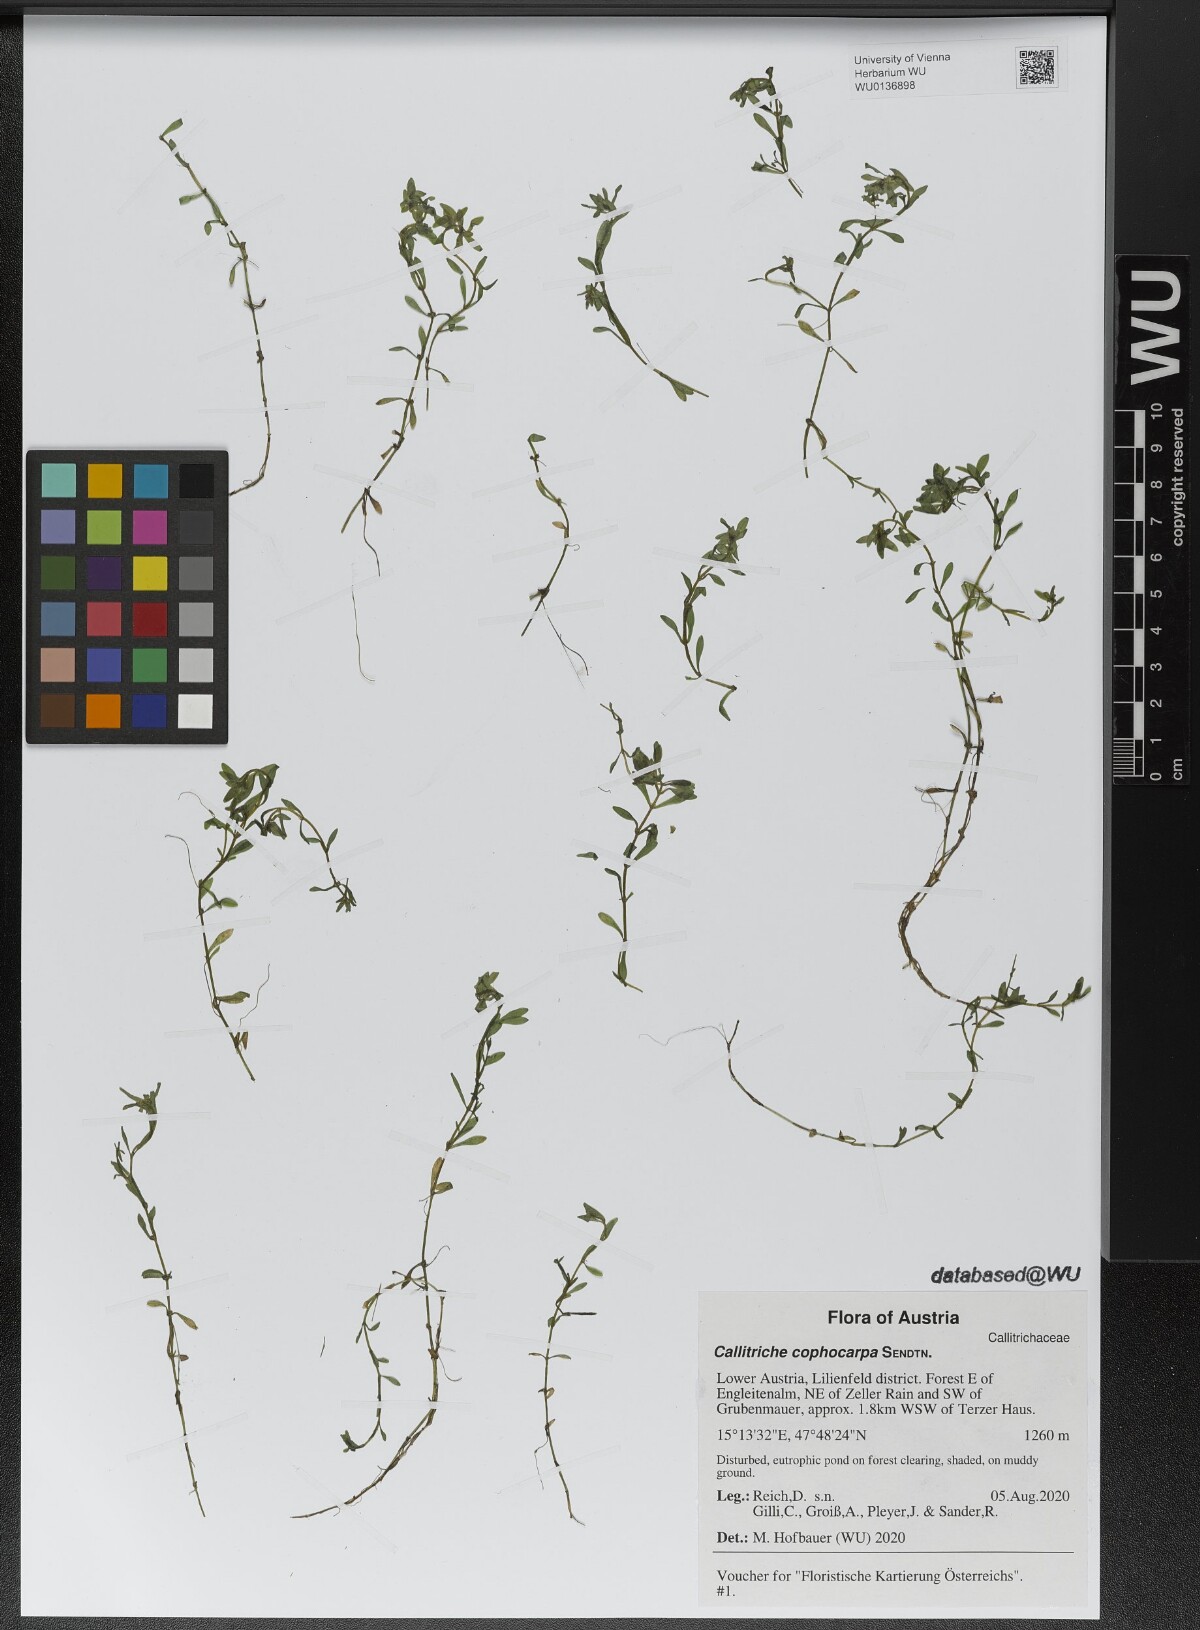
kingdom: Plantae
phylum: Tracheophyta
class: Magnoliopsida
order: Lamiales
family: Plantaginaceae
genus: Callitriche
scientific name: Callitriche cophocarpa
